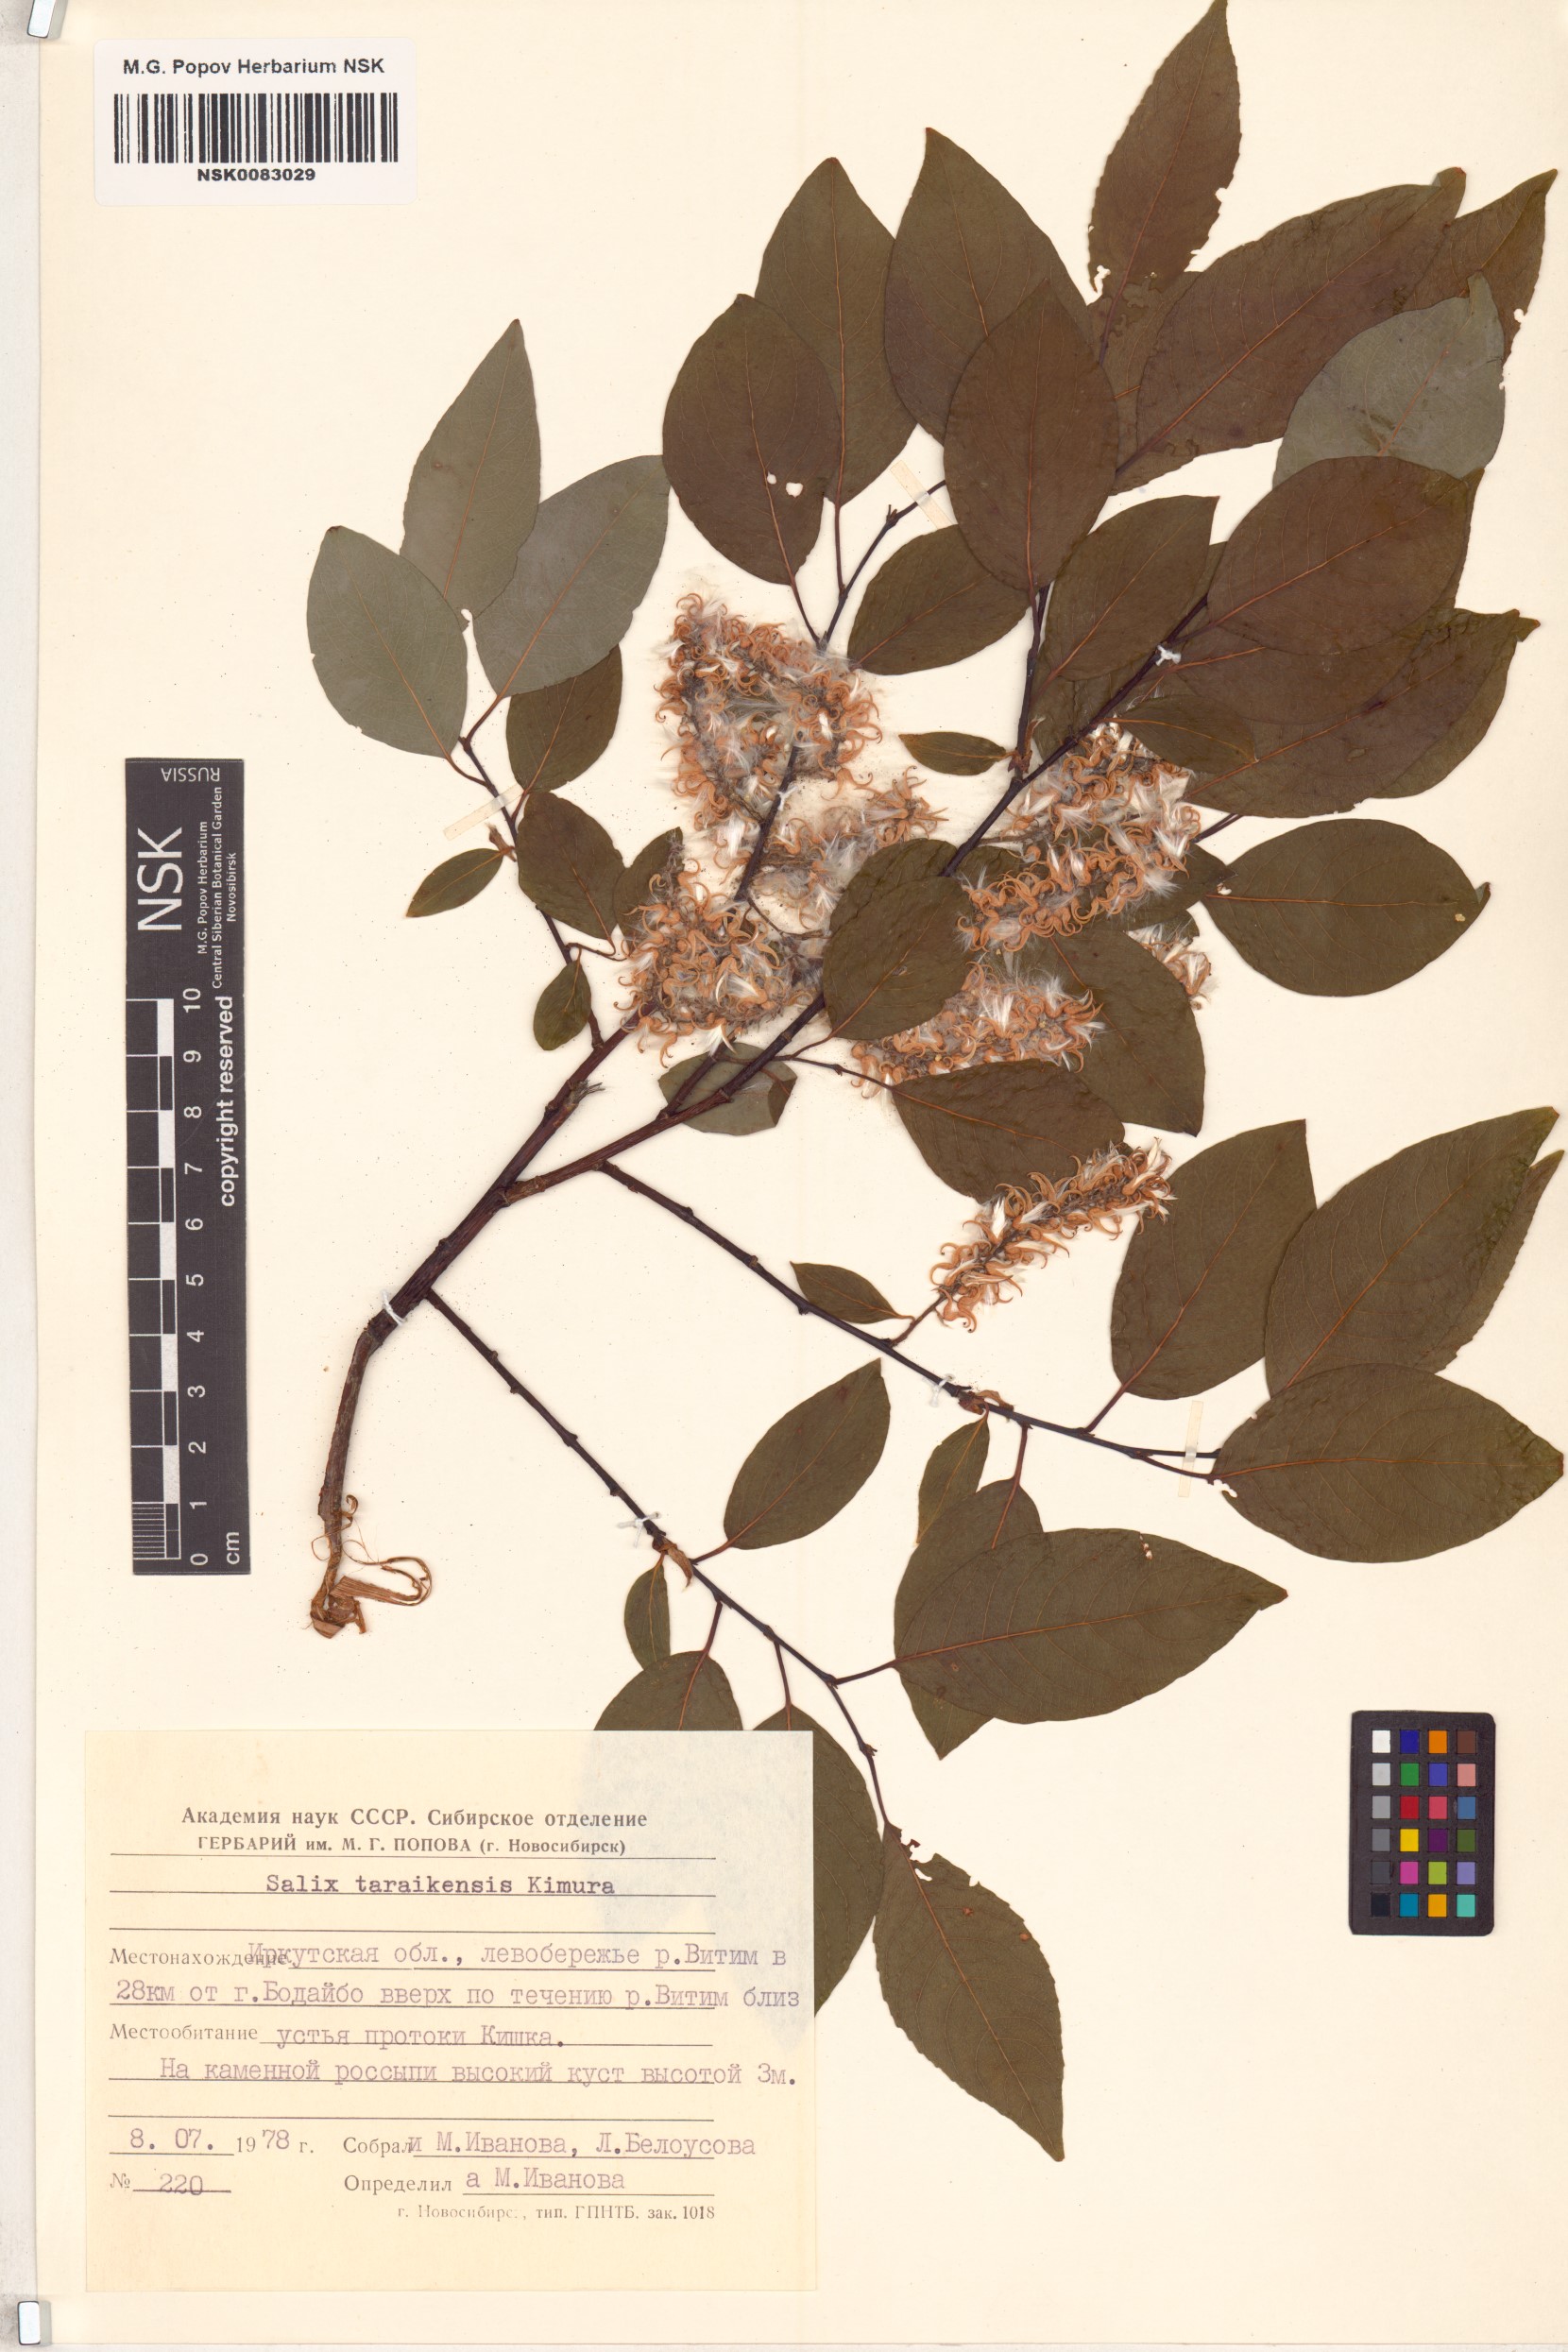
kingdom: Plantae
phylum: Tracheophyta
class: Magnoliopsida
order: Malpighiales
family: Salicaceae
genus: Salix
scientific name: Salix taraikensis
